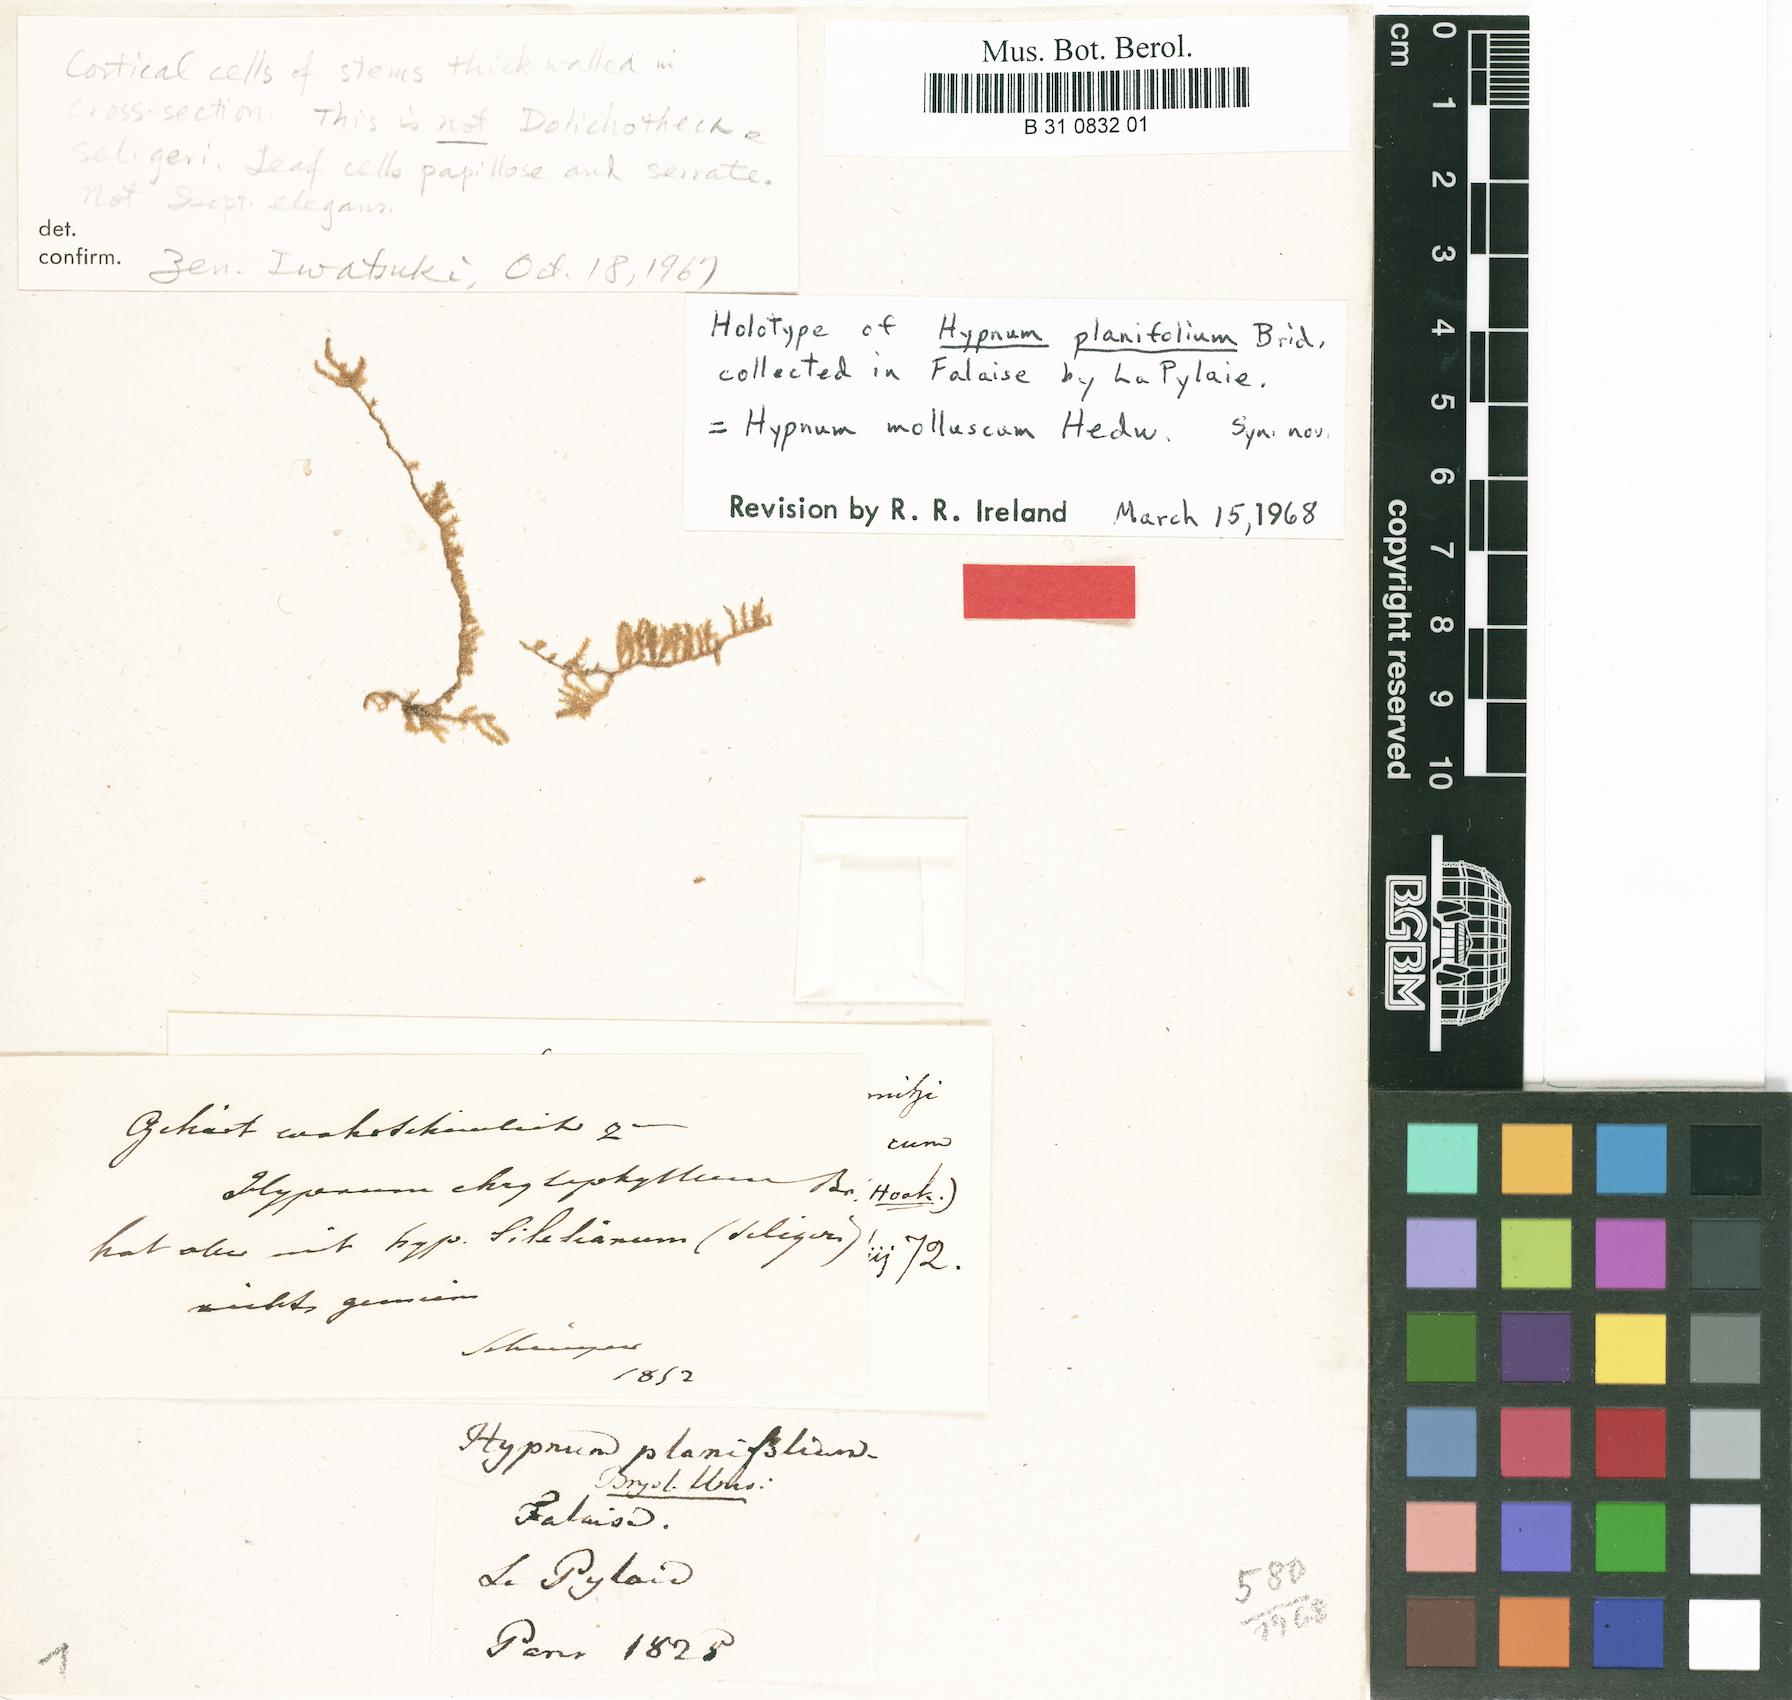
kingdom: Plantae
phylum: Bryophyta
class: Bryopsida
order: Hedwigiales
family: Hedwigiaceae
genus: Hedwigia
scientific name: Hedwigia ciliata
